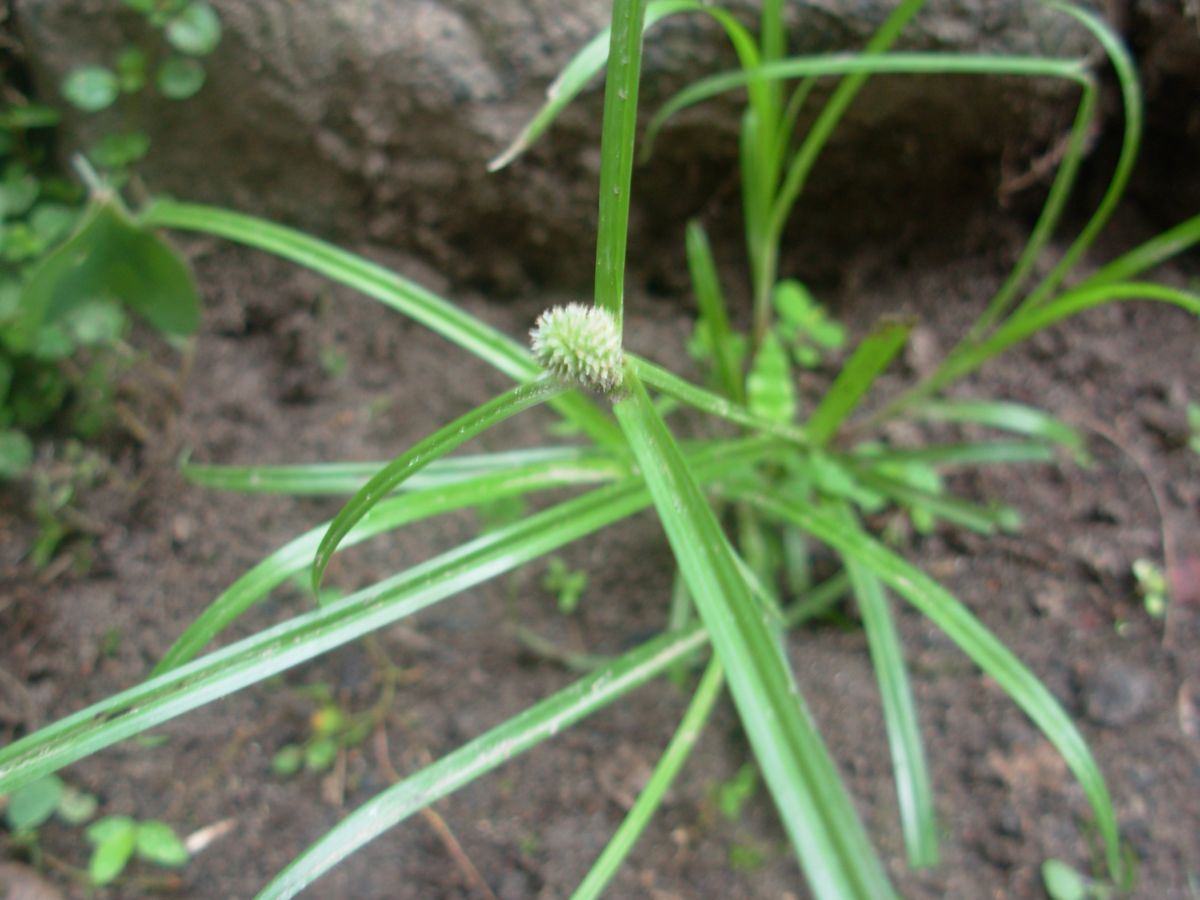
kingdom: Plantae
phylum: Tracheophyta
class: Liliopsida
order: Poales
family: Cyperaceae
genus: Cyperus
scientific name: Cyperus sesquiflorus
